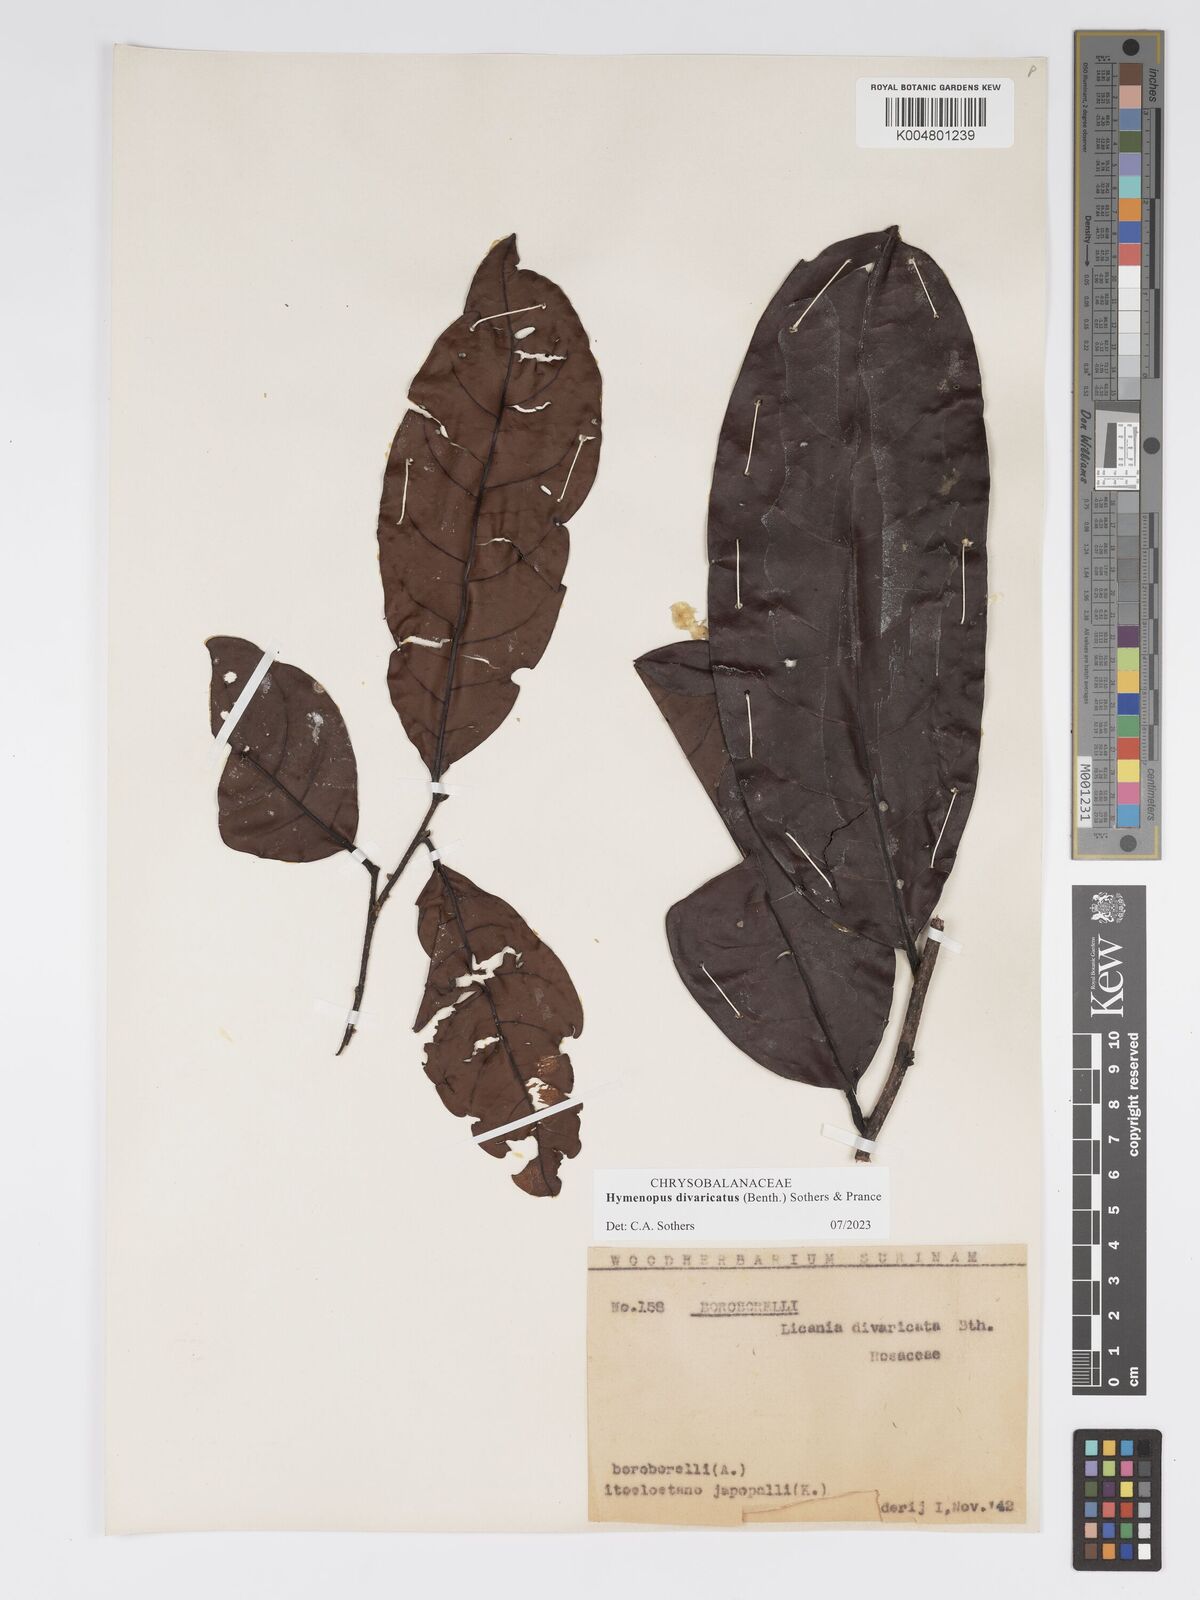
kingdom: Plantae
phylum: Tracheophyta
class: Magnoliopsida
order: Malpighiales
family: Chrysobalanaceae
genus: Hymenopus
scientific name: Hymenopus divaricatus
